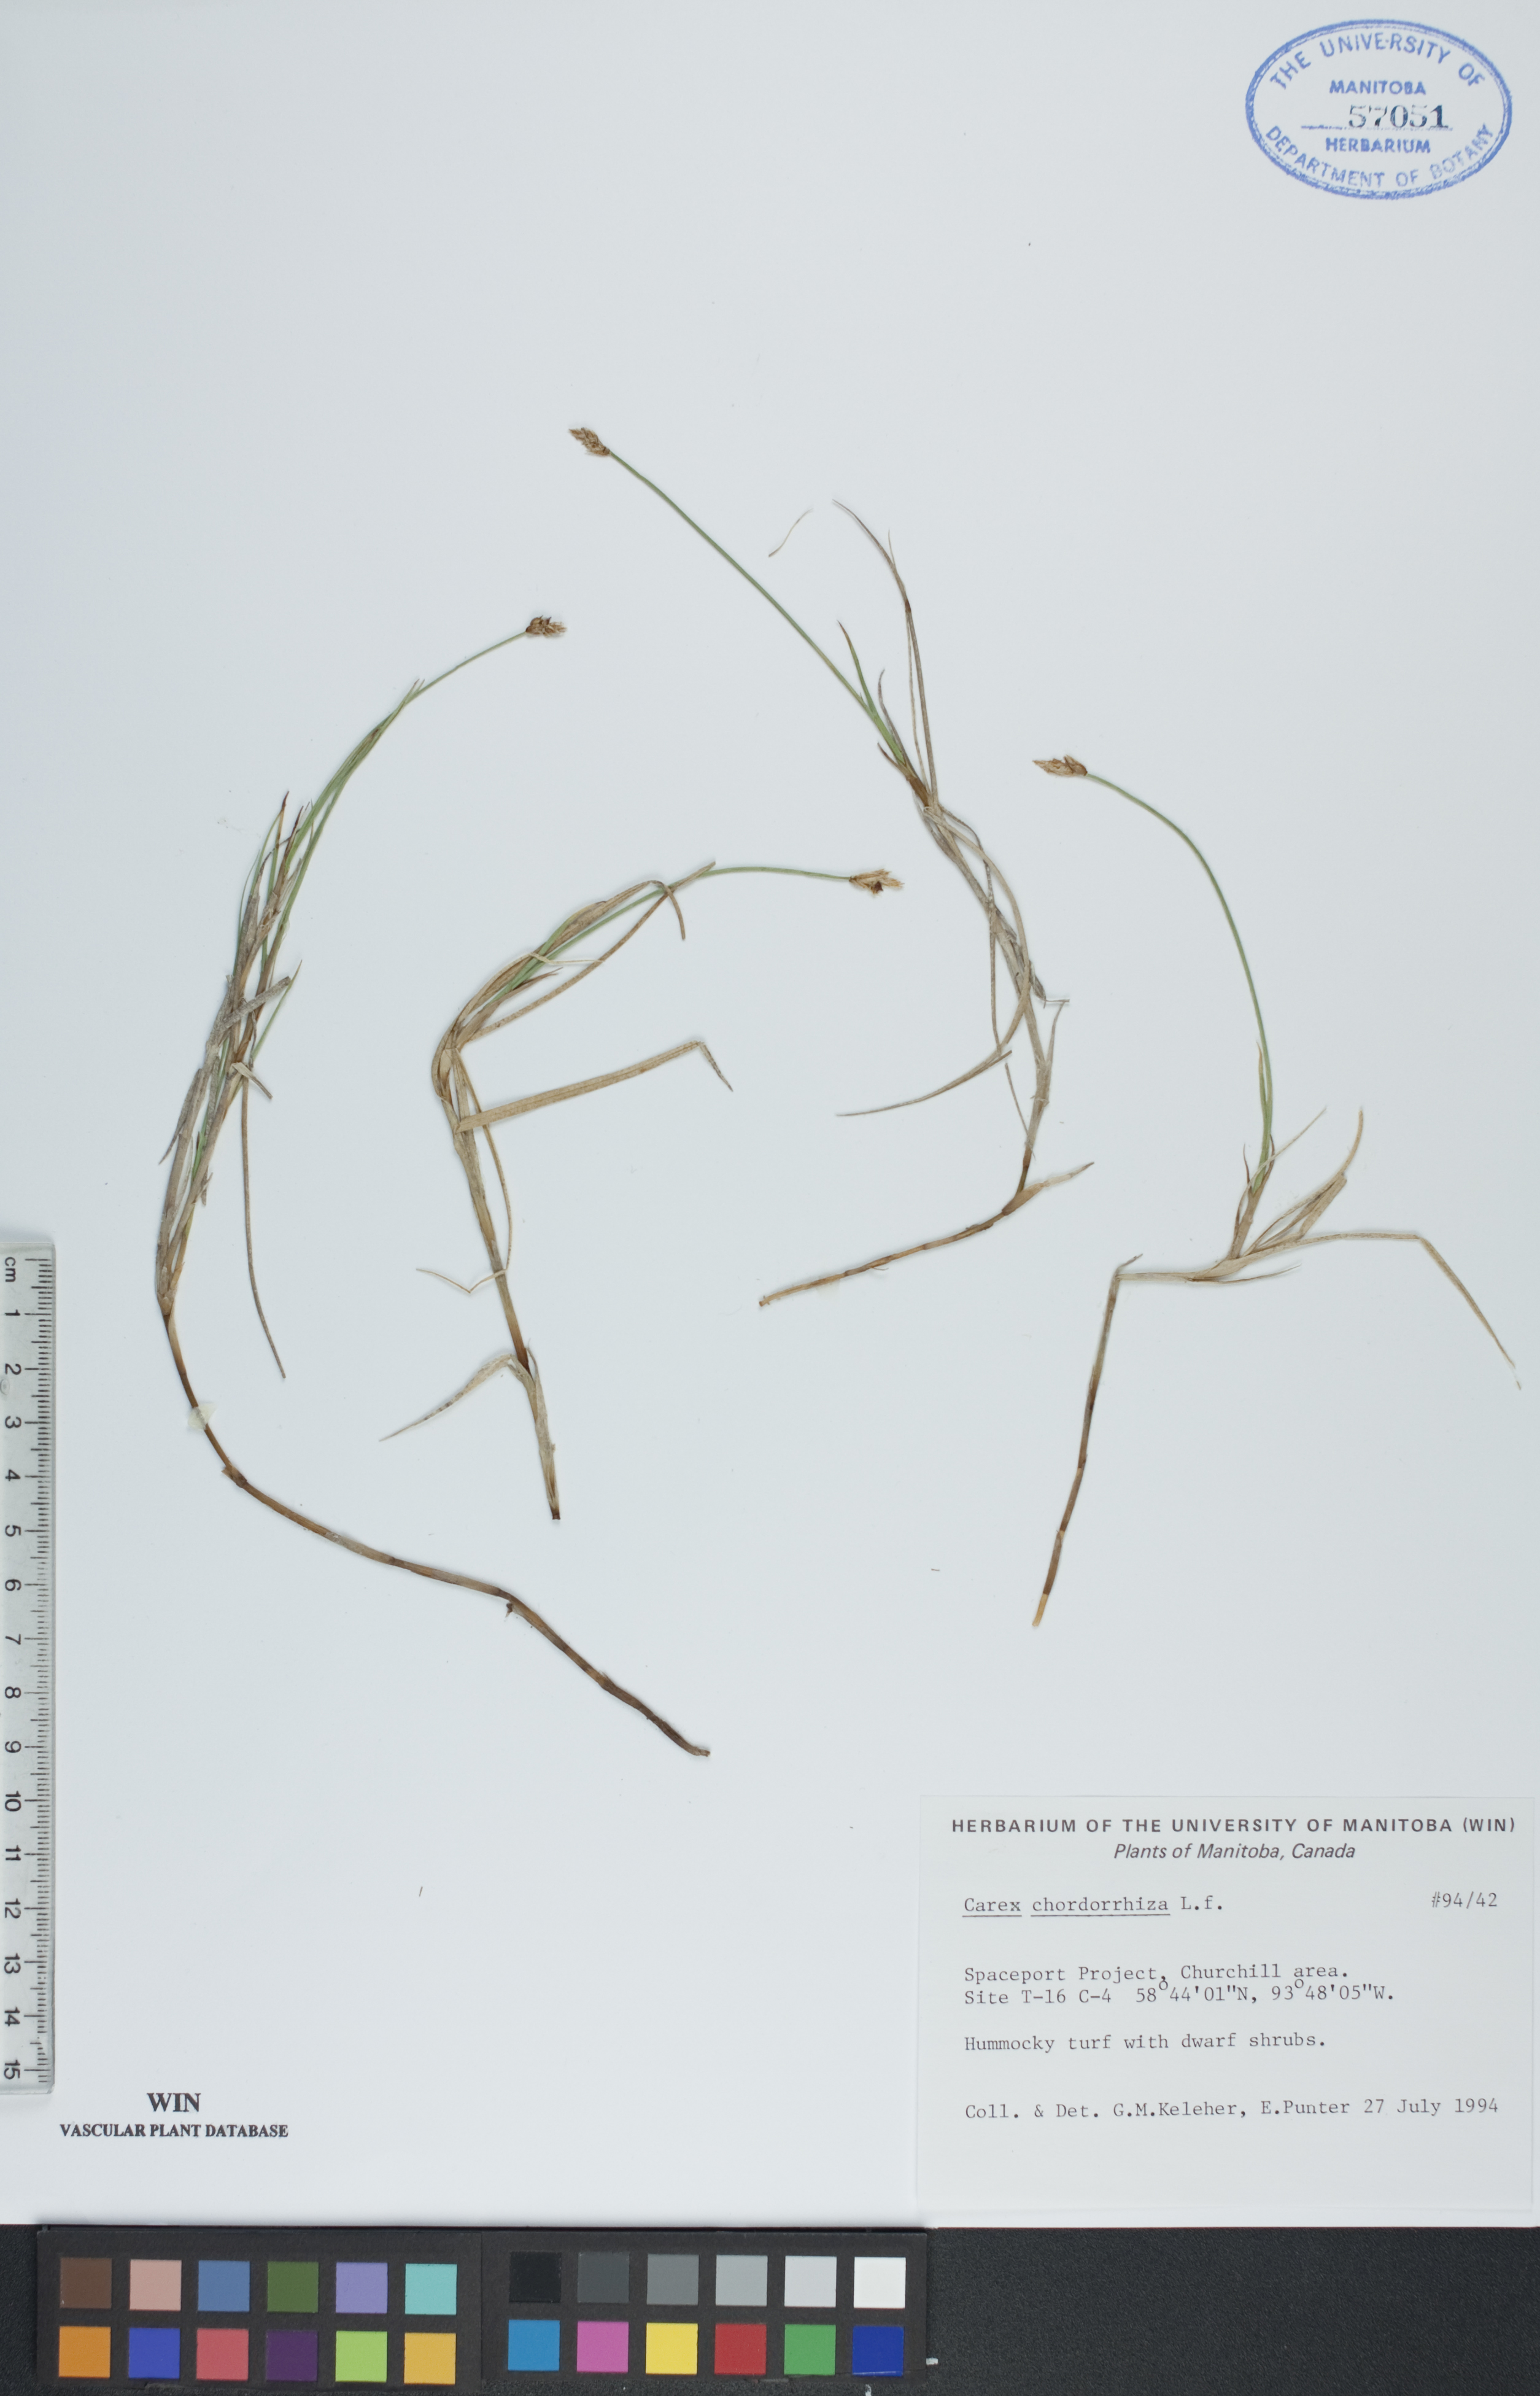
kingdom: Plantae
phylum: Tracheophyta
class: Liliopsida
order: Poales
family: Cyperaceae
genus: Carex
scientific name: Carex chordorrhiza
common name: String sedge
